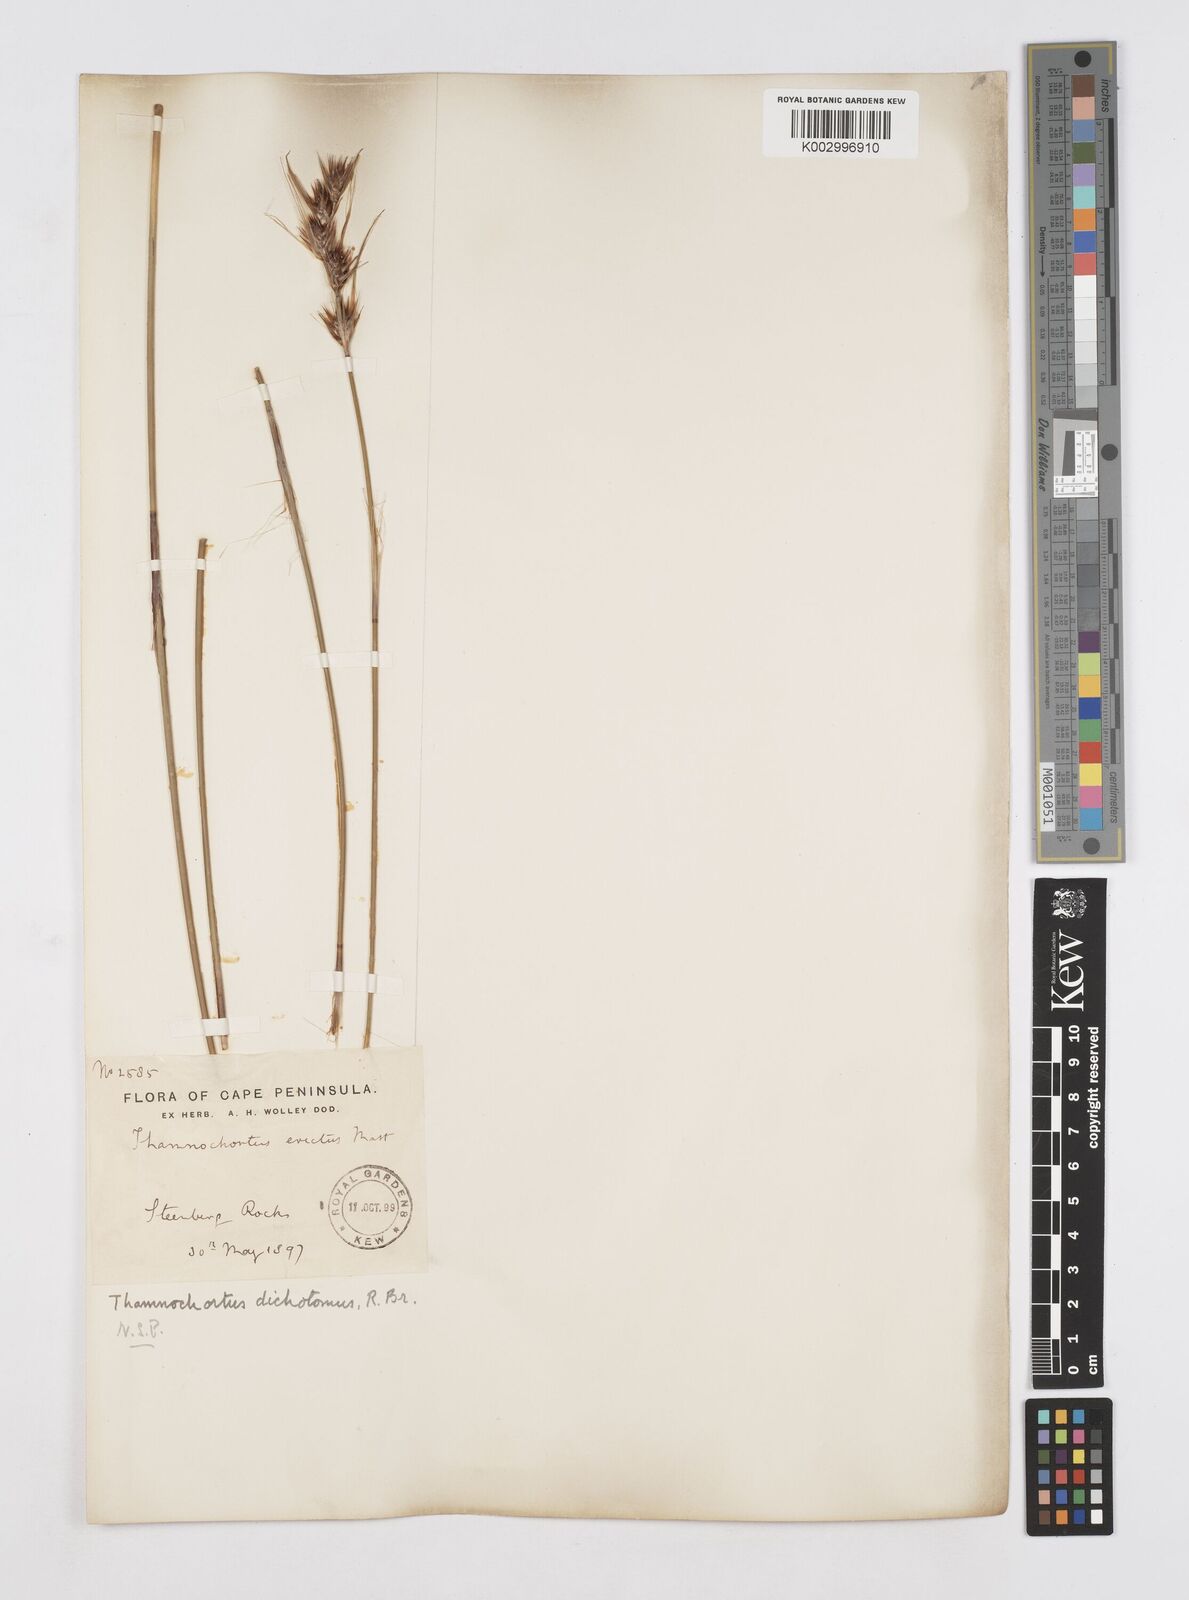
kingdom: Plantae
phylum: Tracheophyta
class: Liliopsida
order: Poales
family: Restionaceae
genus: Thamnochortus
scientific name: Thamnochortus lucens
